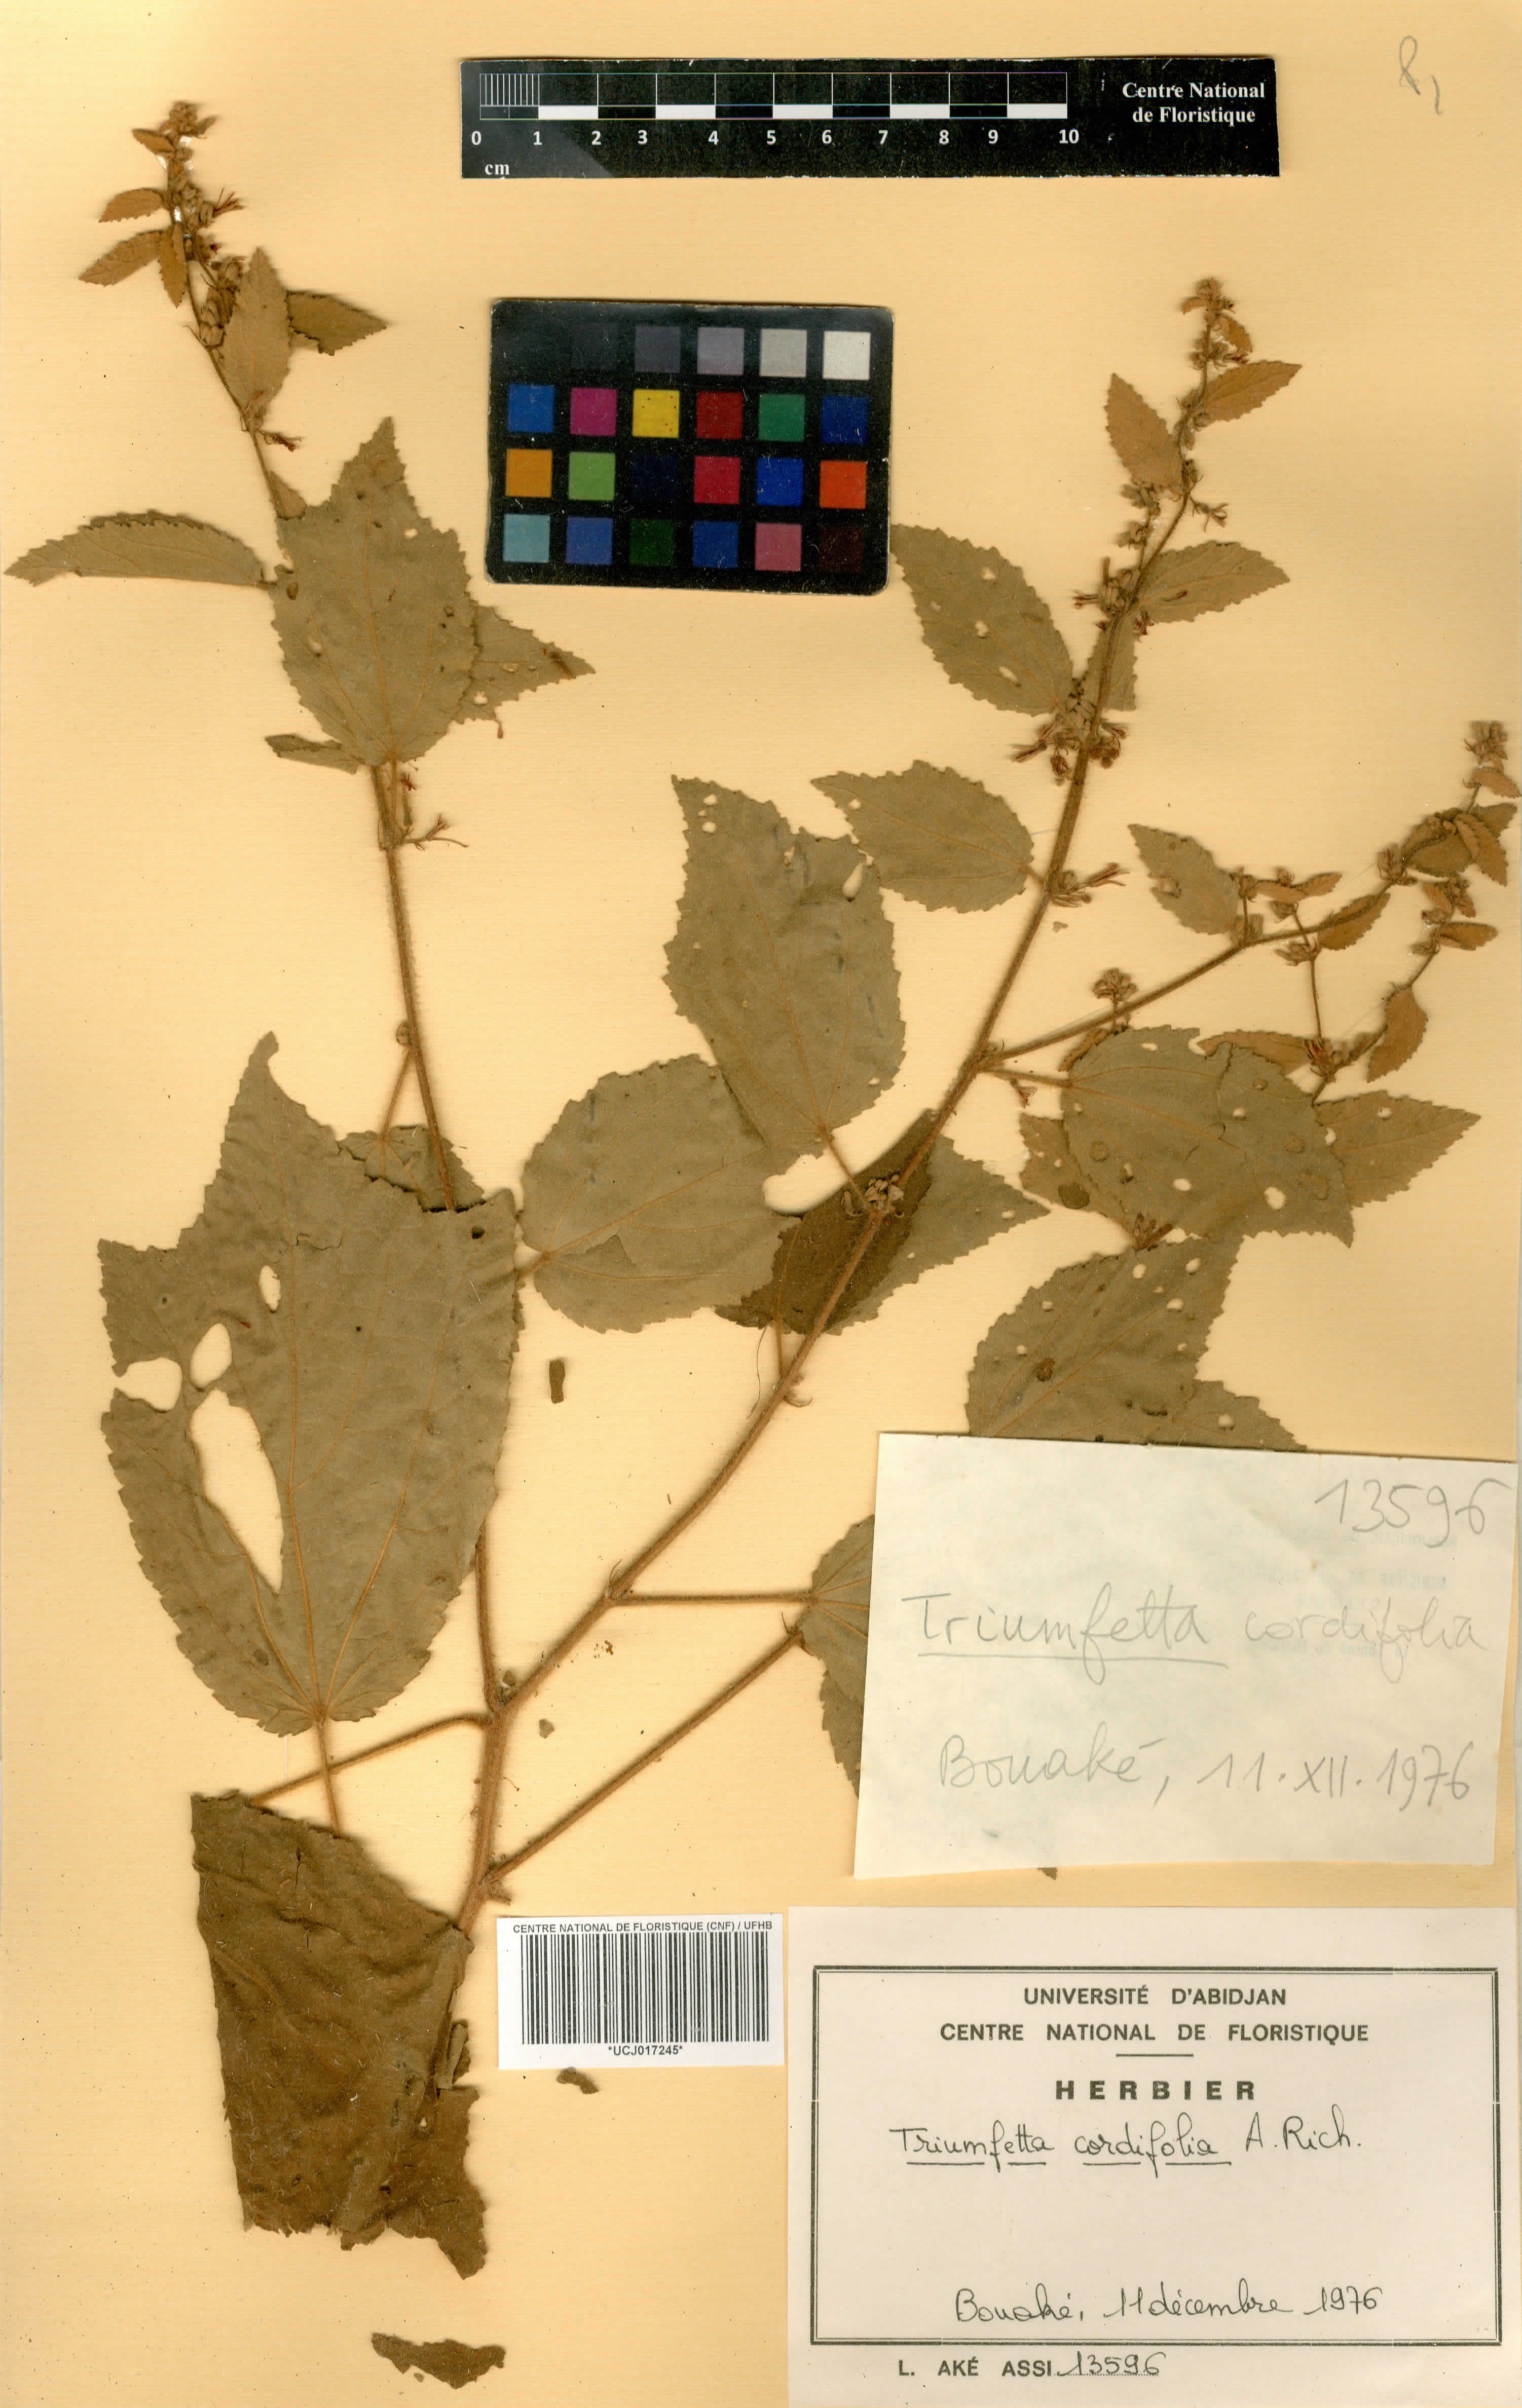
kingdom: Plantae
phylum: Tracheophyta
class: Magnoliopsida
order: Malvales
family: Malvaceae
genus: Triumfetta
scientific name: Triumfetta cordifolia
